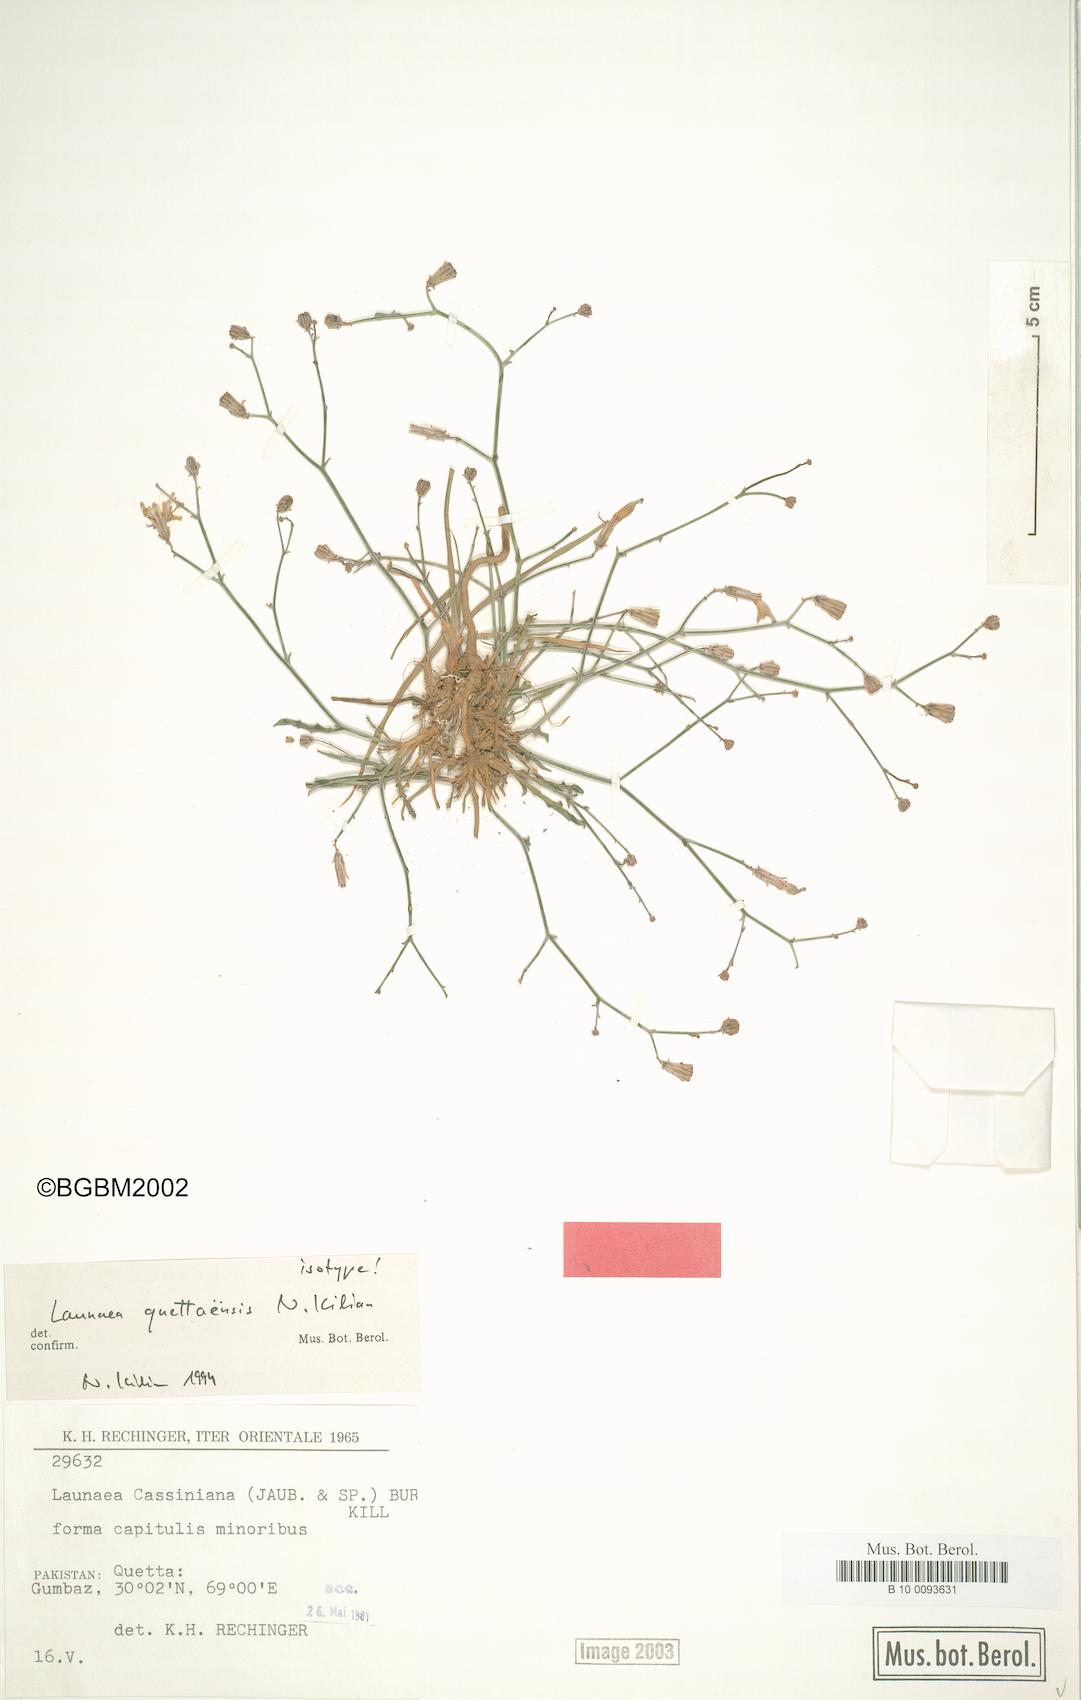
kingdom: Plantae
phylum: Tracheophyta
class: Magnoliopsida
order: Asterales
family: Asteraceae
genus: Launaea
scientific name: Launaea quettaensis
